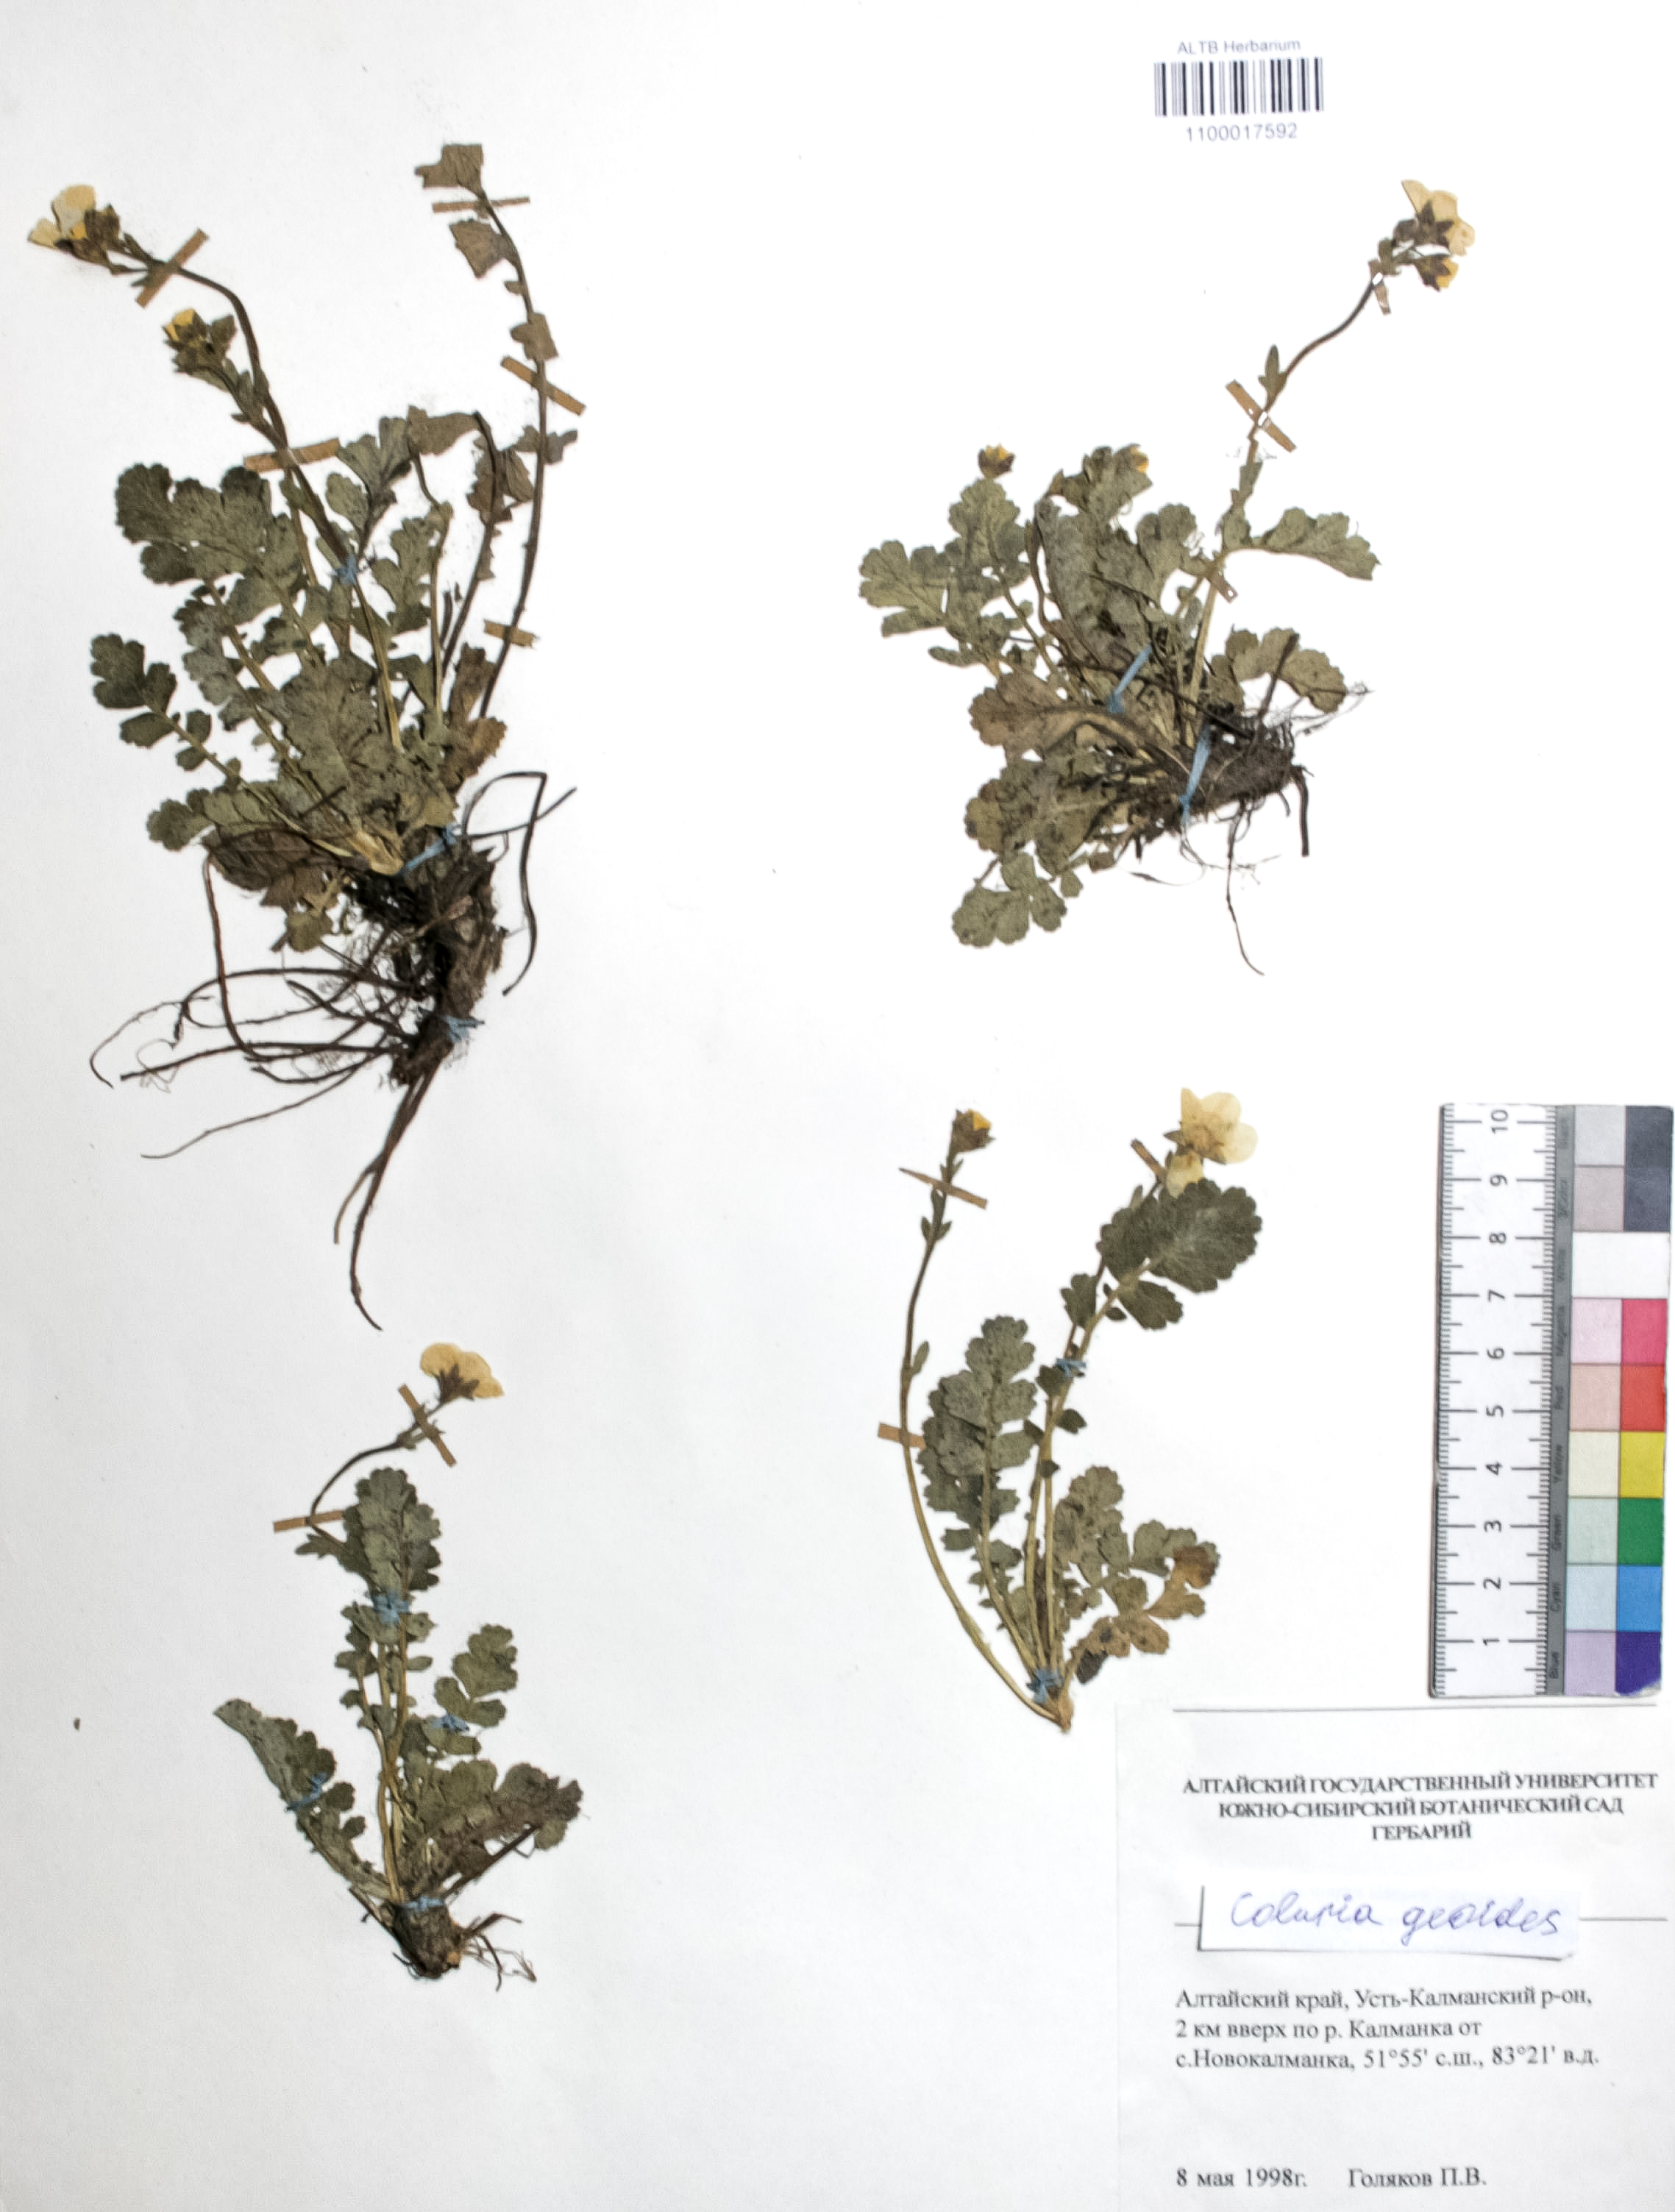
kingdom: Plantae
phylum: Tracheophyta
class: Magnoliopsida
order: Rosales
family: Rosaceae
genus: Geum
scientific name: Geum geoides
